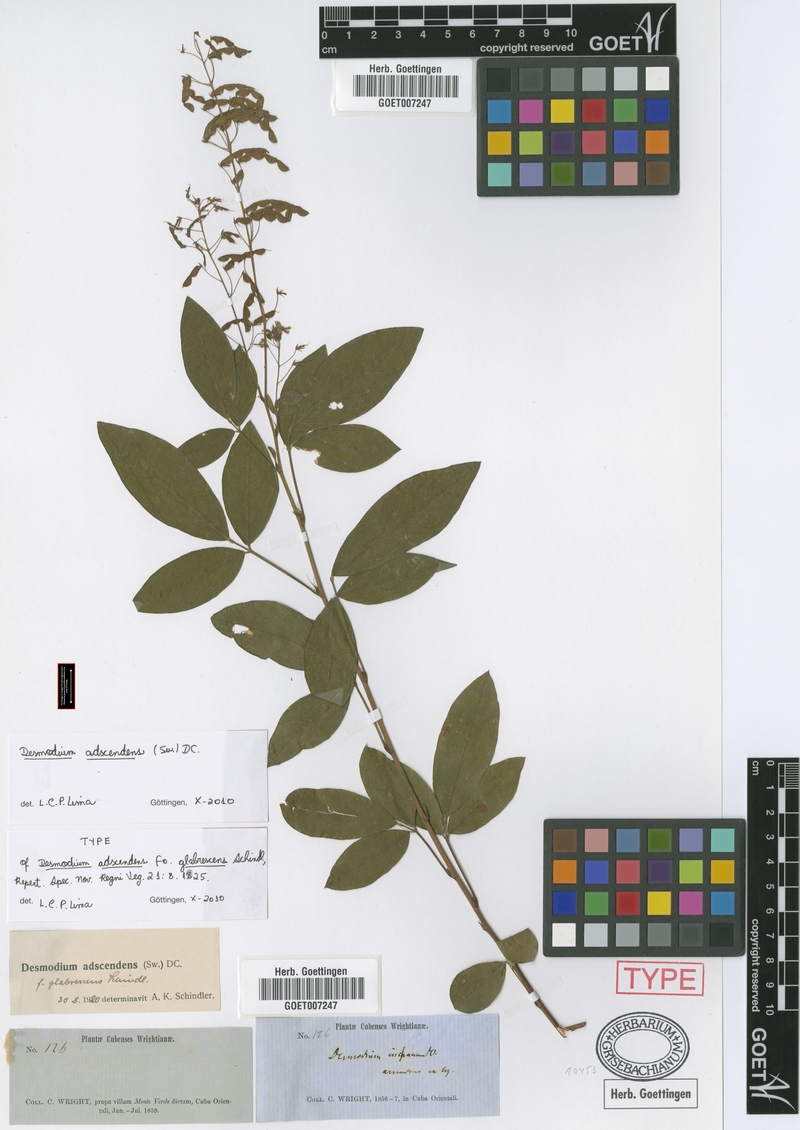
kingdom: Plantae
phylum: Tracheophyta
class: Magnoliopsida
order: Fabales
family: Fabaceae
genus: Grona
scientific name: Grona adscendens
